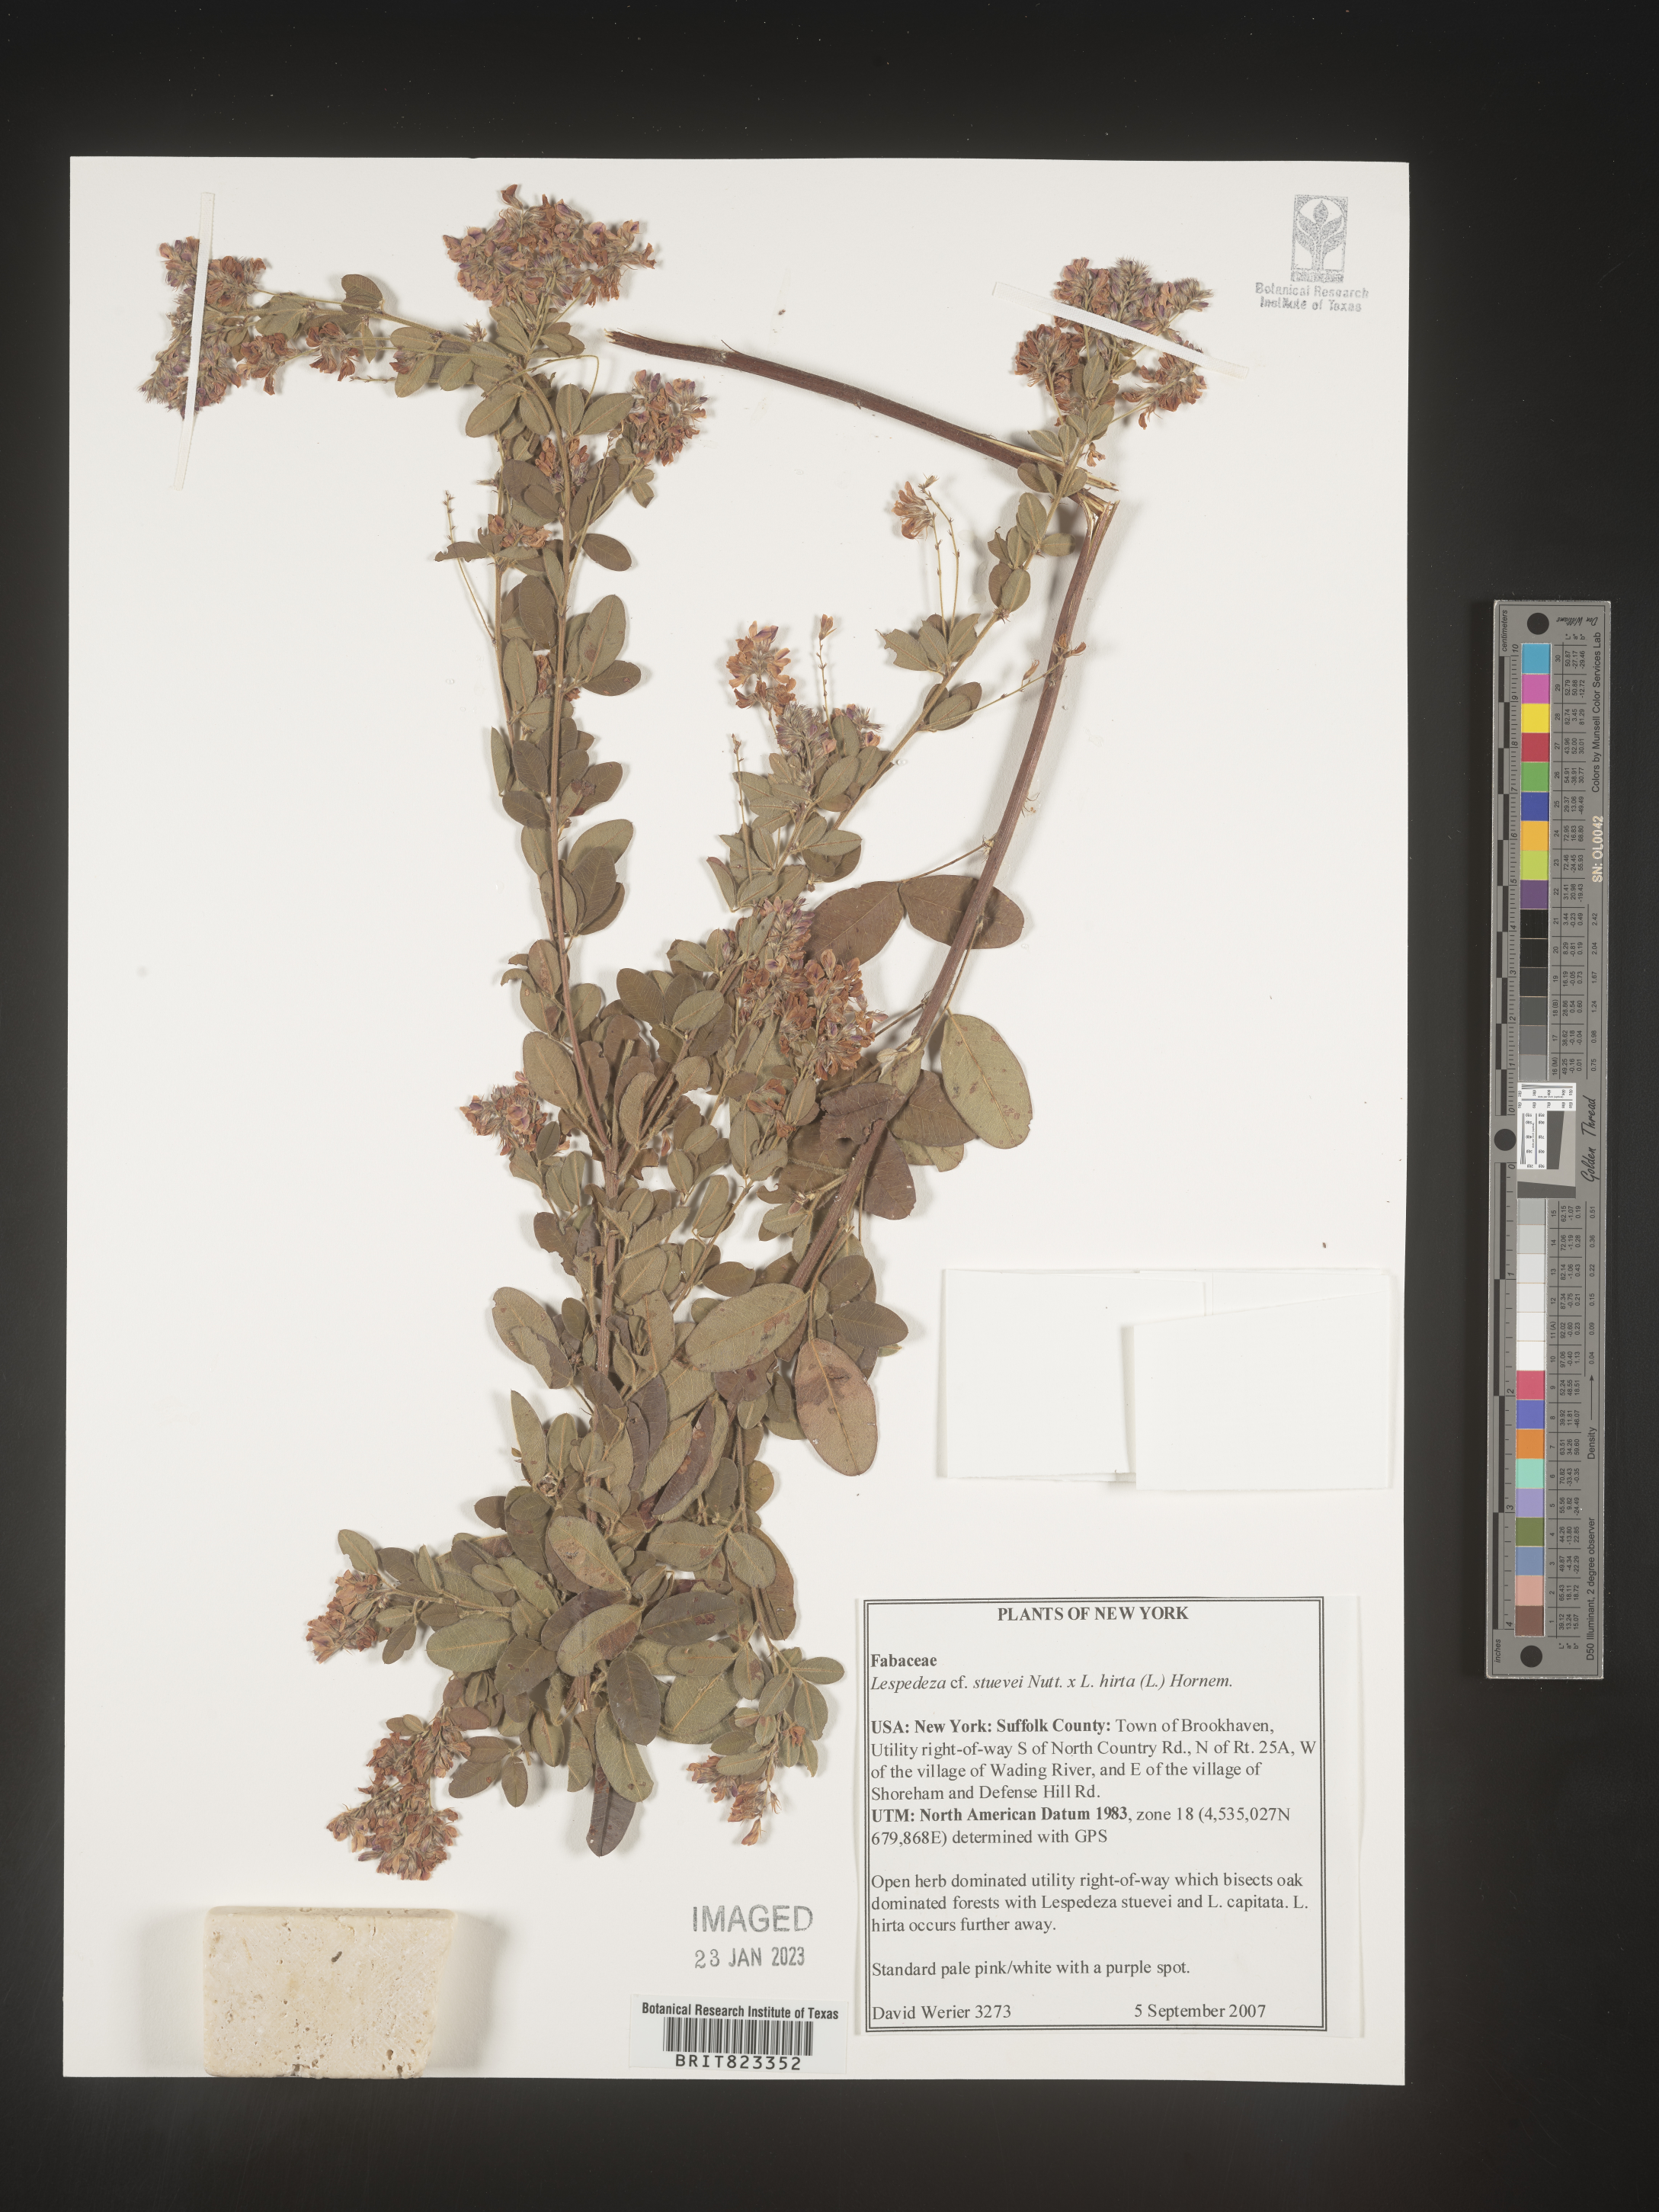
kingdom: Plantae
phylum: Tracheophyta
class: Magnoliopsida
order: Fabales
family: Fabaceae
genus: Lespedeza
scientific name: Lespedeza stuevei
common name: Tall bush-clover
